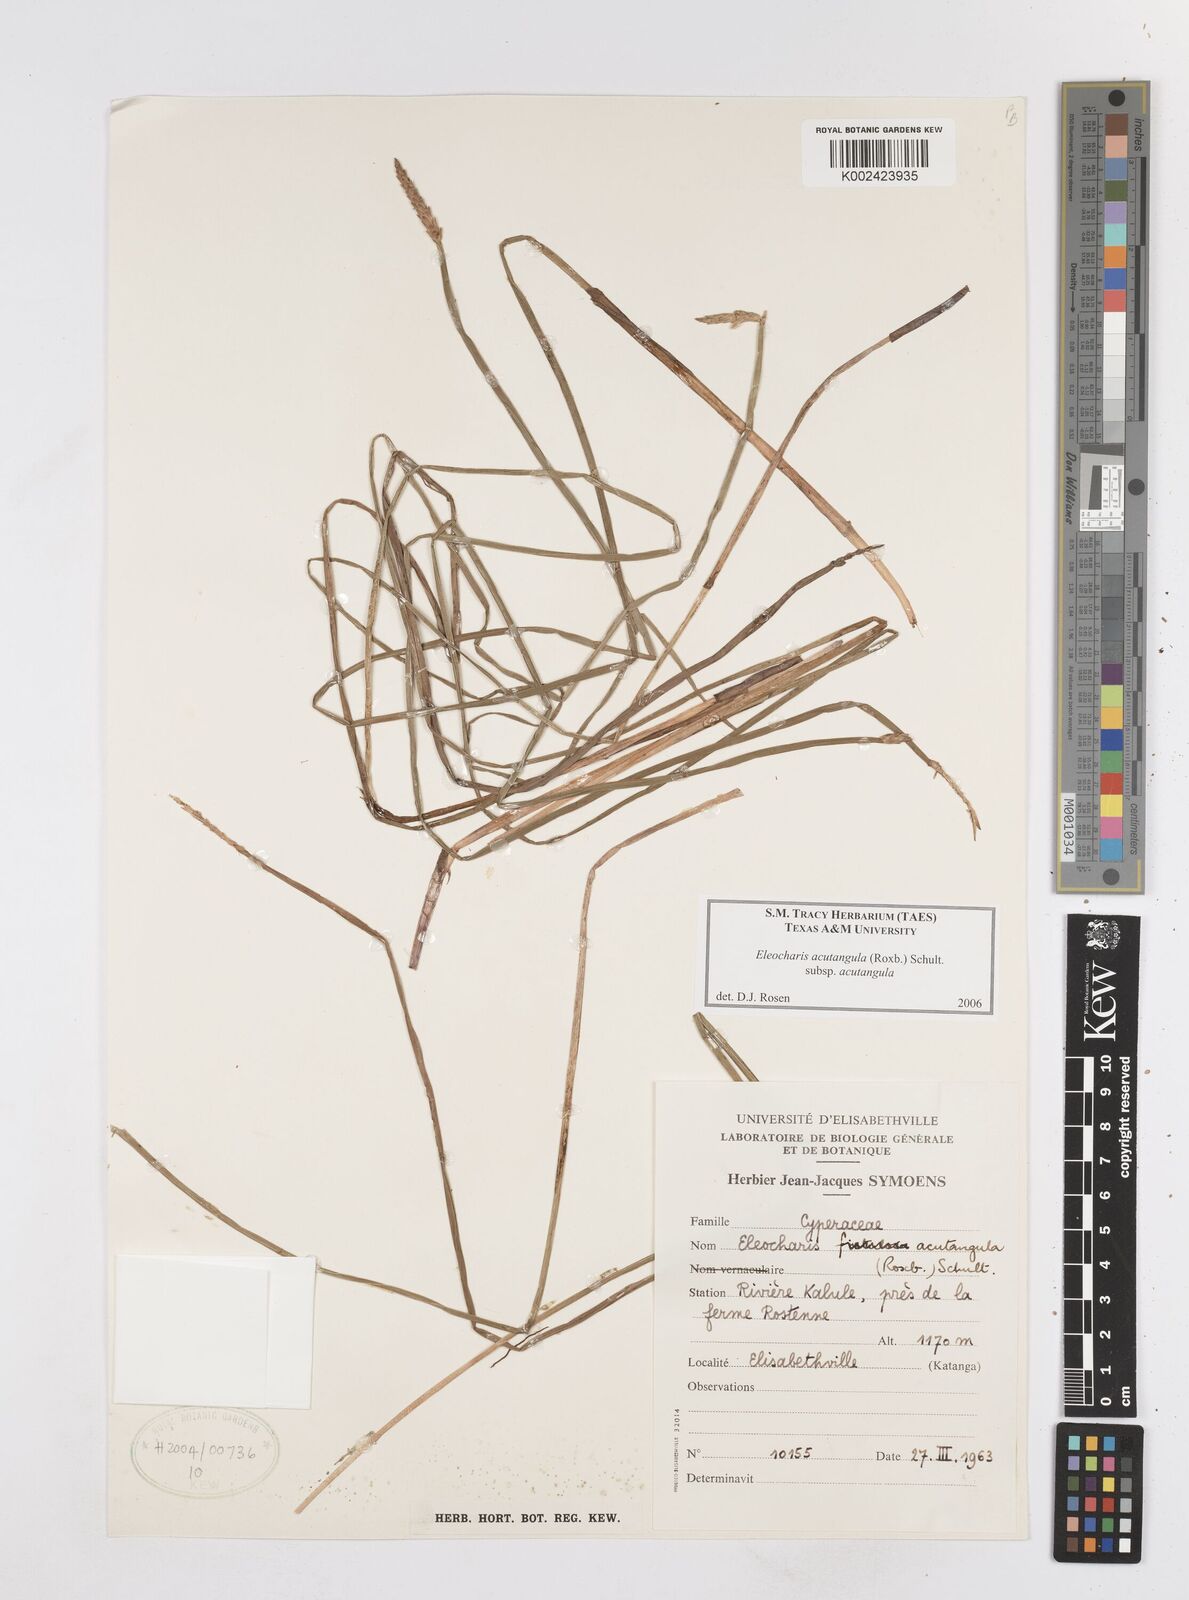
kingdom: Plantae
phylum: Tracheophyta
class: Liliopsida
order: Poales
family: Cyperaceae
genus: Eleocharis
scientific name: Eleocharis acutangula
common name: Acute spikerush
